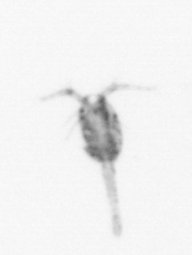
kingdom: Animalia
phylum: Arthropoda
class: Copepoda
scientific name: Copepoda
